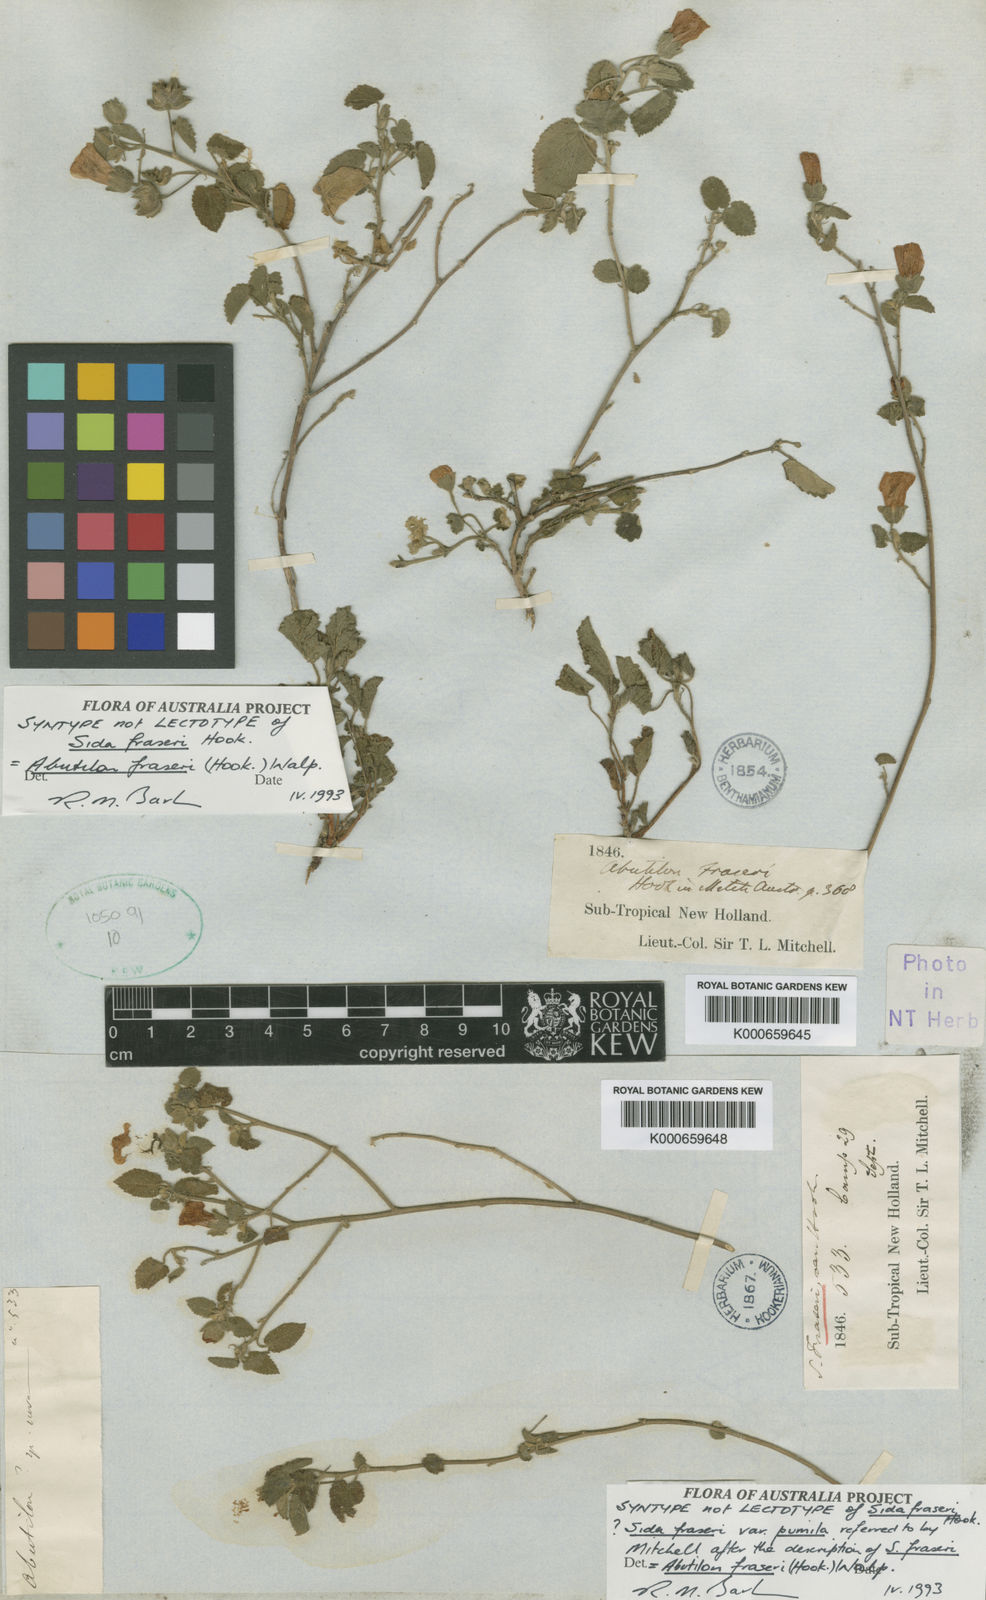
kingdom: Plantae
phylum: Tracheophyta
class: Magnoliopsida
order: Malvales
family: Malvaceae
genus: Abutilon
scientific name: Abutilon fraseri
